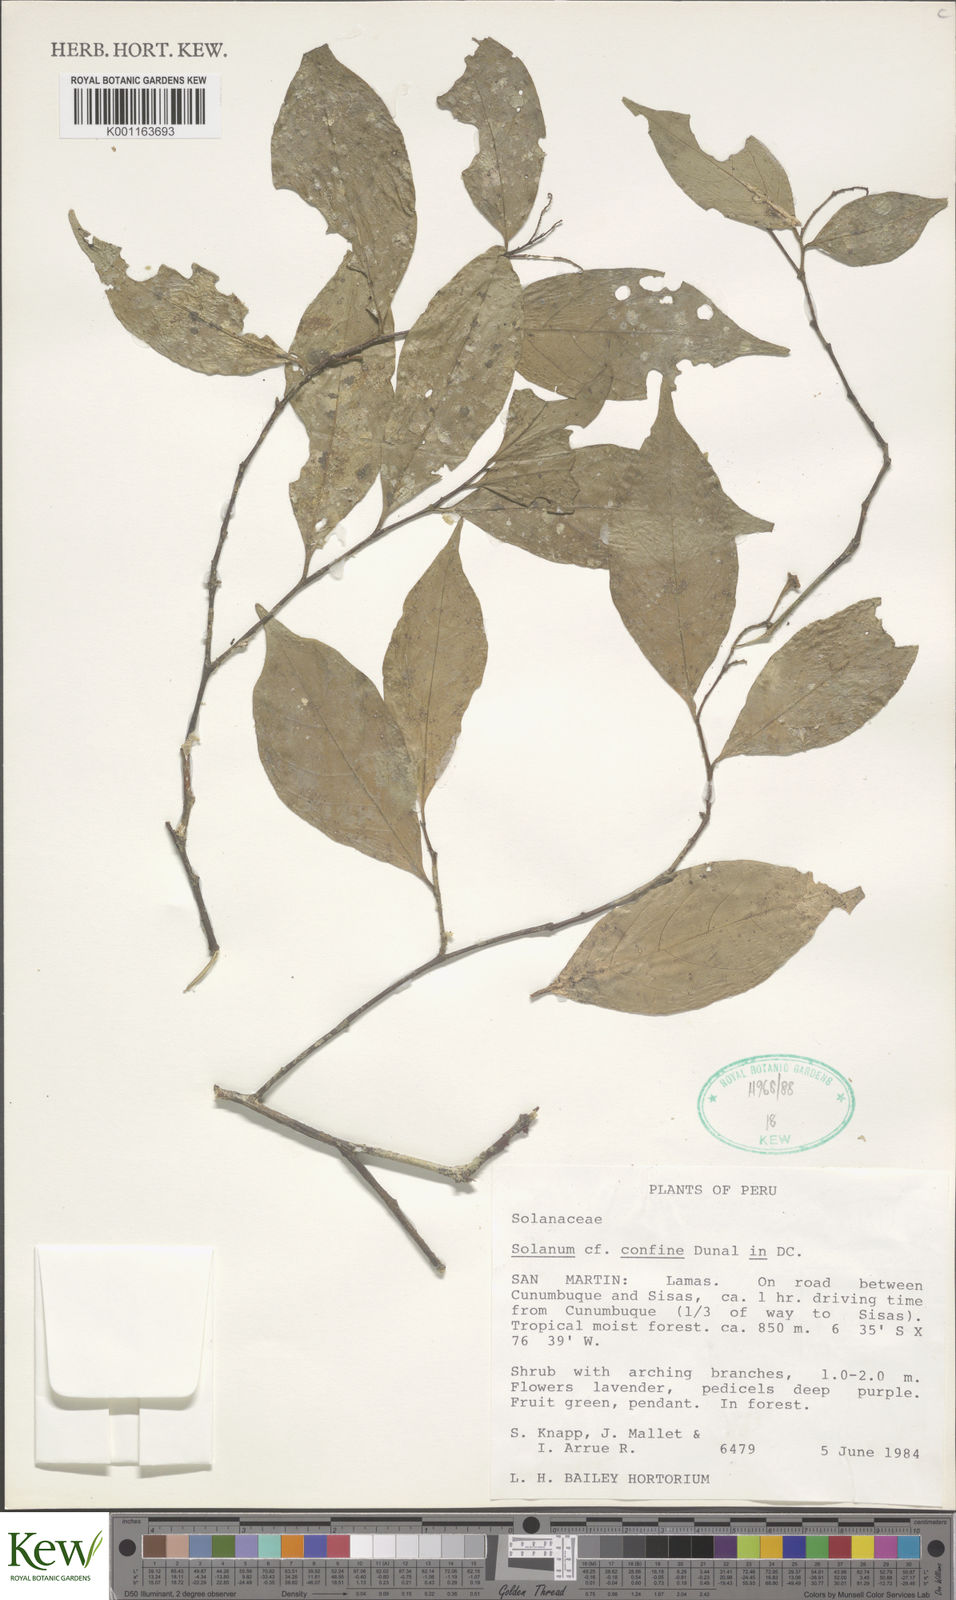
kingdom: Plantae
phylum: Tracheophyta
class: Magnoliopsida
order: Solanales
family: Solanaceae
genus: Solanum
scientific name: Solanum confine
